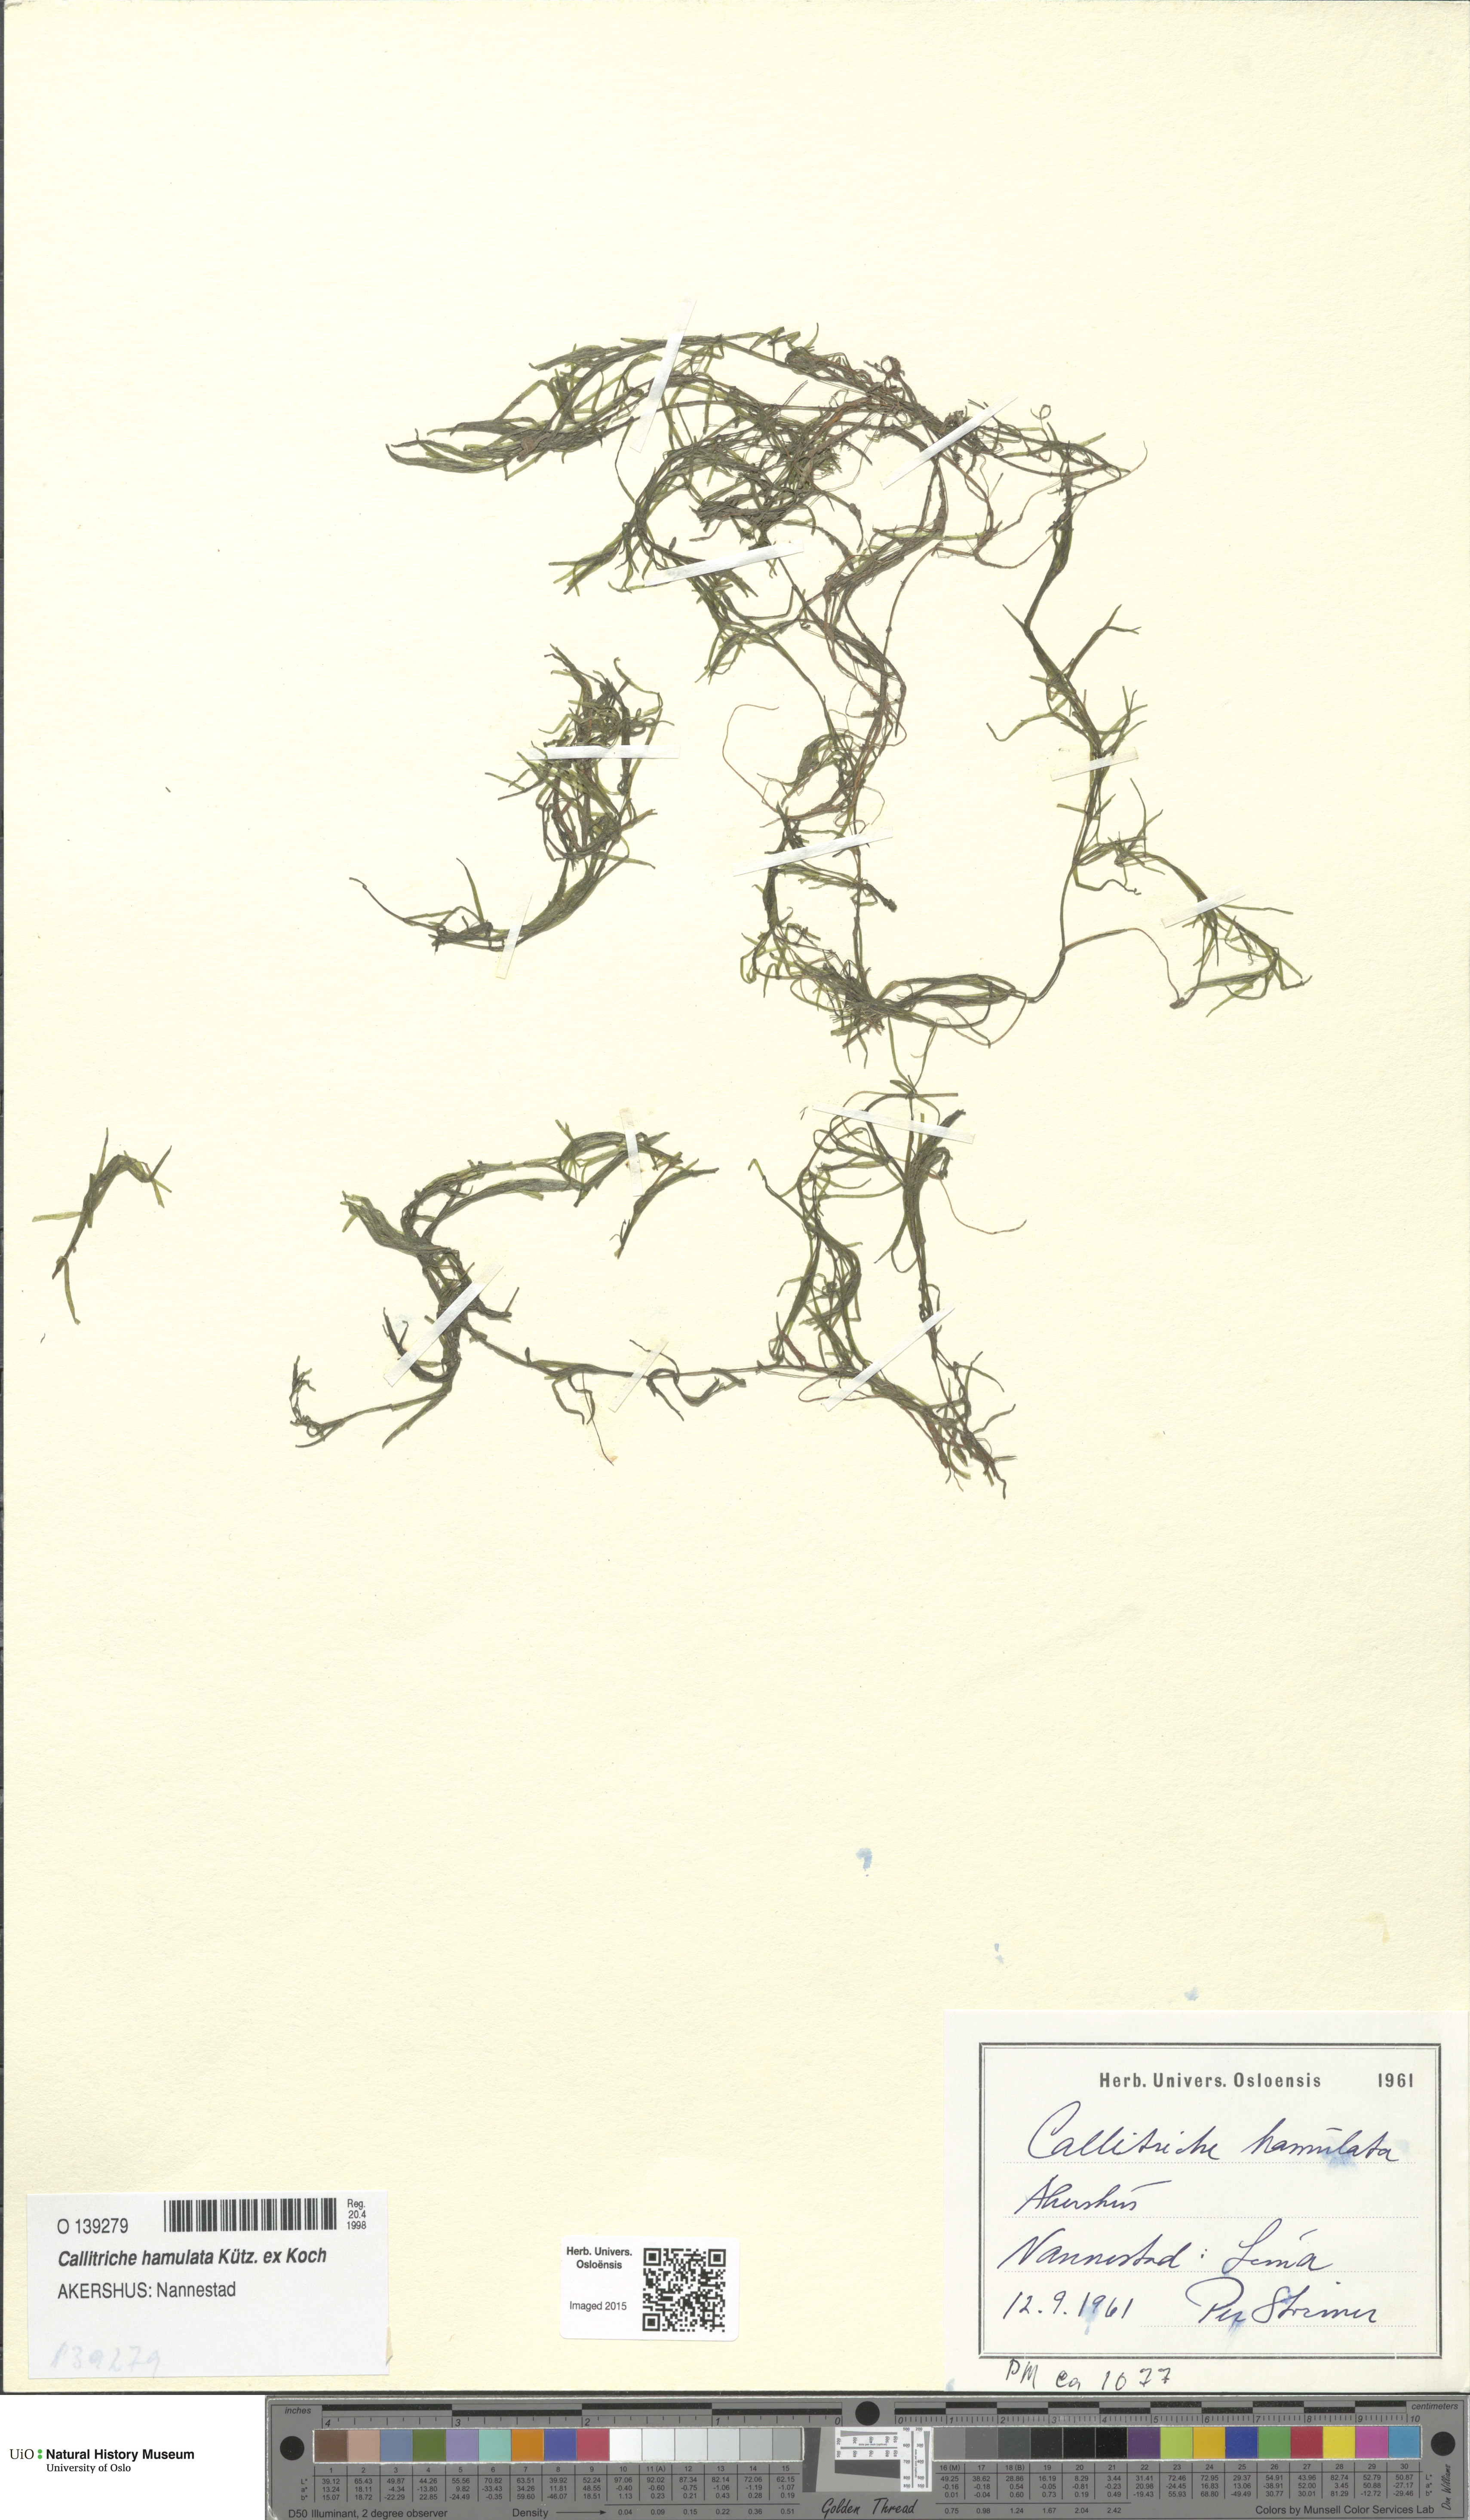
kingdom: Plantae
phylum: Tracheophyta
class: Magnoliopsida
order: Lamiales
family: Plantaginaceae
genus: Callitriche
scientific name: Callitriche hamulata
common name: Intermediate water-starwort
